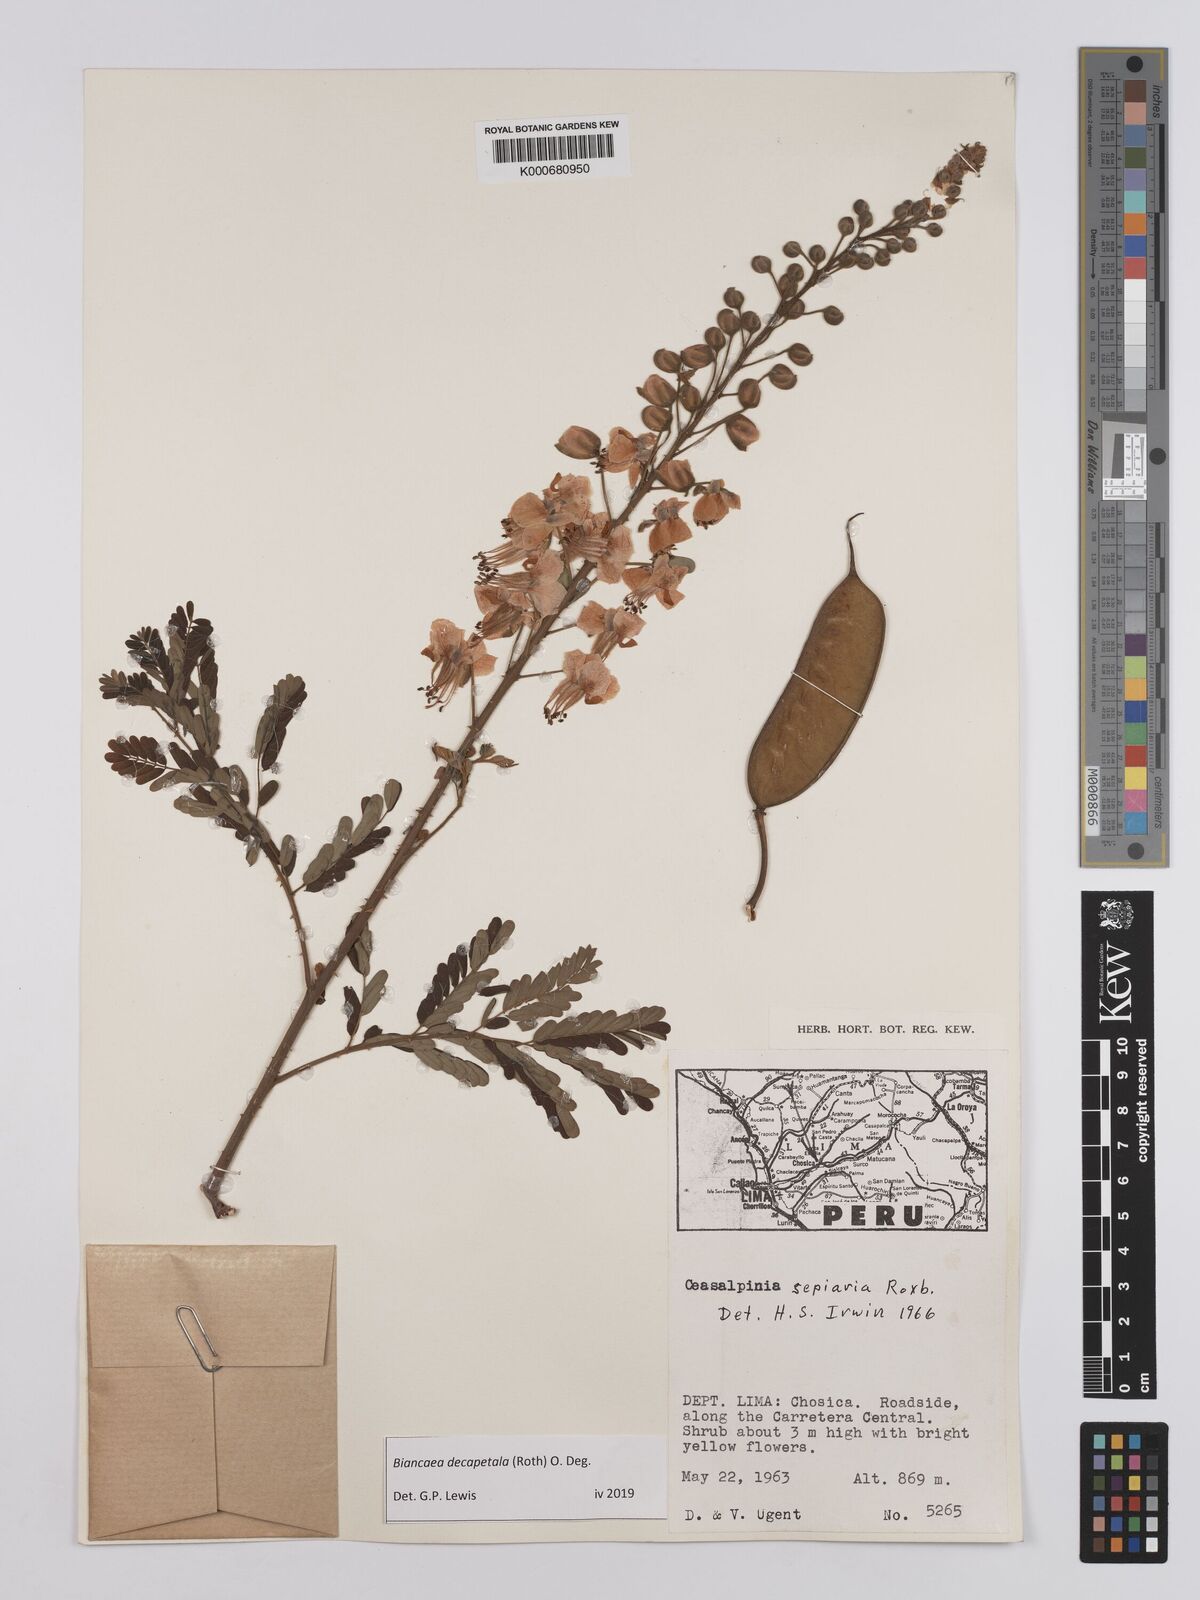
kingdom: Plantae
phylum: Tracheophyta
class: Magnoliopsida
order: Fabales
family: Fabaceae
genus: Biancaea
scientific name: Biancaea decapetala
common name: Cat's claw
